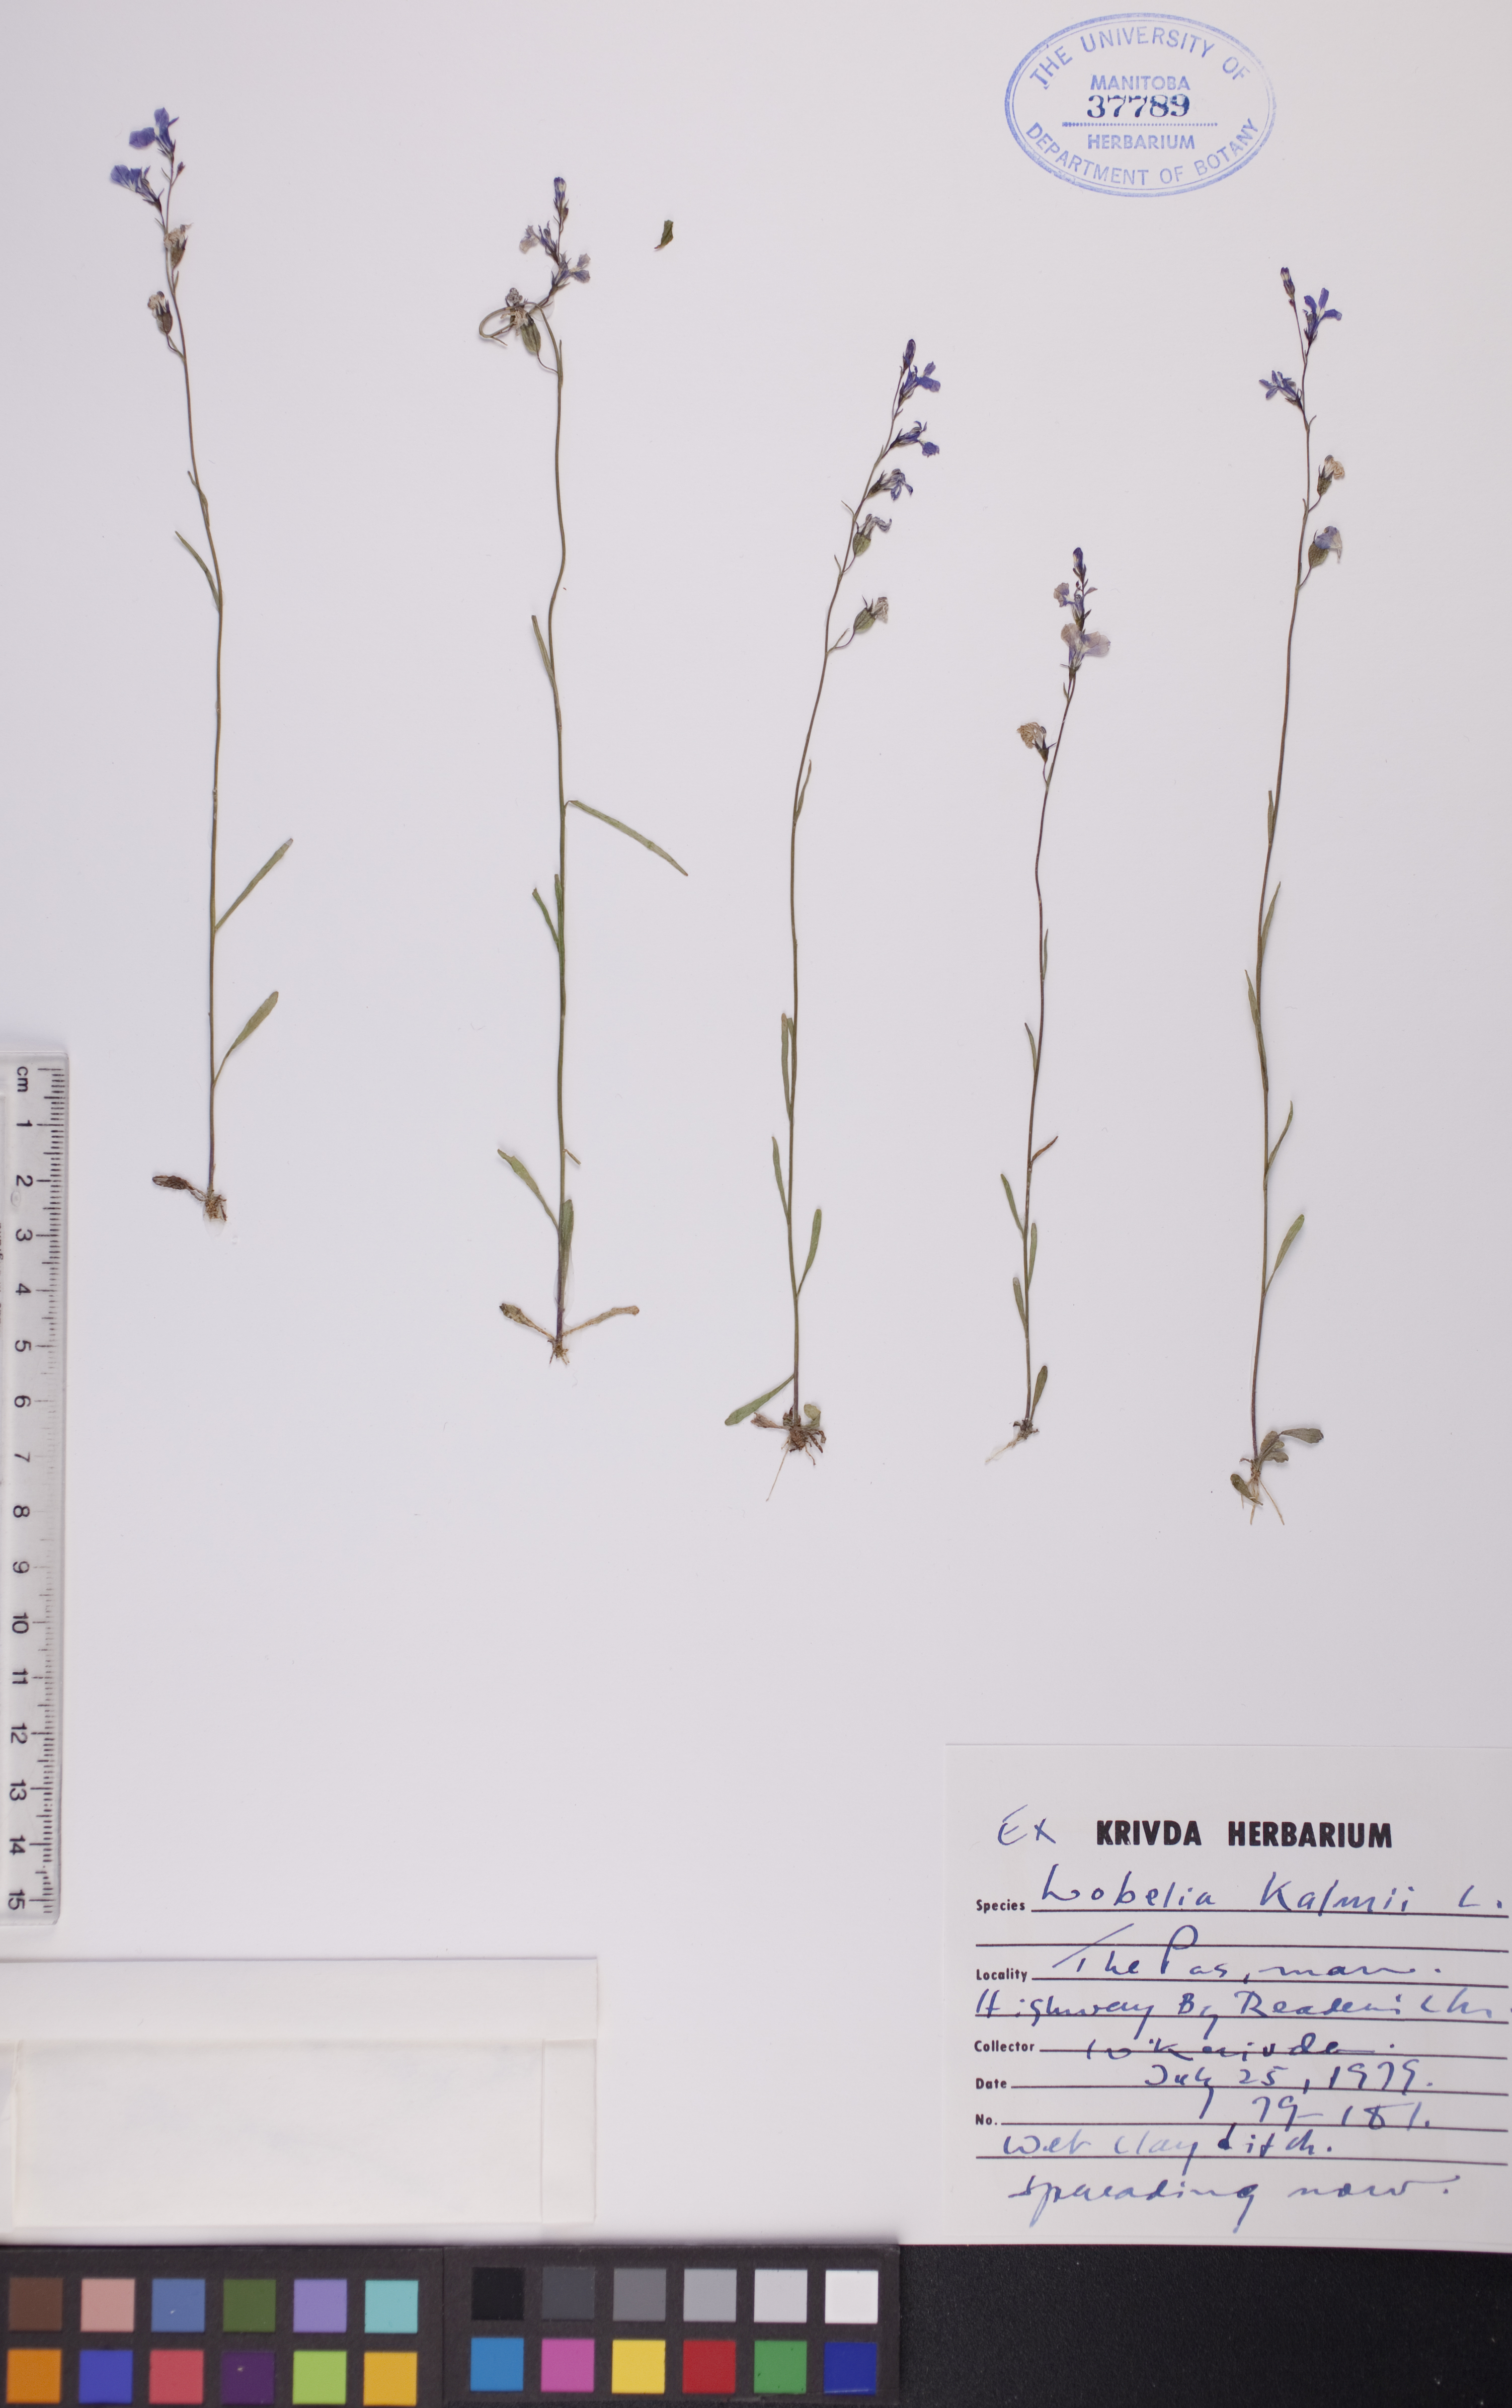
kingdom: Plantae
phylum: Tracheophyta
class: Magnoliopsida
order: Asterales
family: Campanulaceae
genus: Lobelia
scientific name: Lobelia kalmii
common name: Kalm's lobelia
